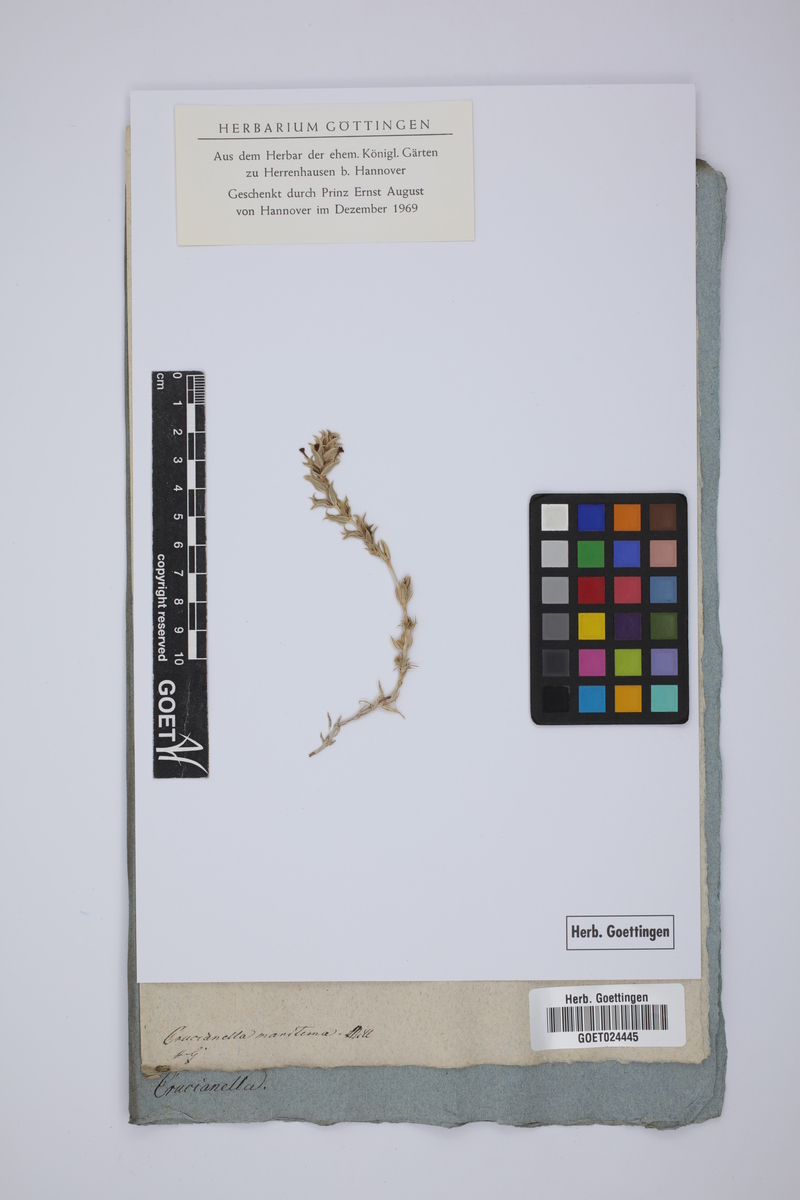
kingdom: Plantae
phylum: Tracheophyta
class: Magnoliopsida
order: Gentianales
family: Rubiaceae
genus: Crucianella
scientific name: Crucianella maritima
